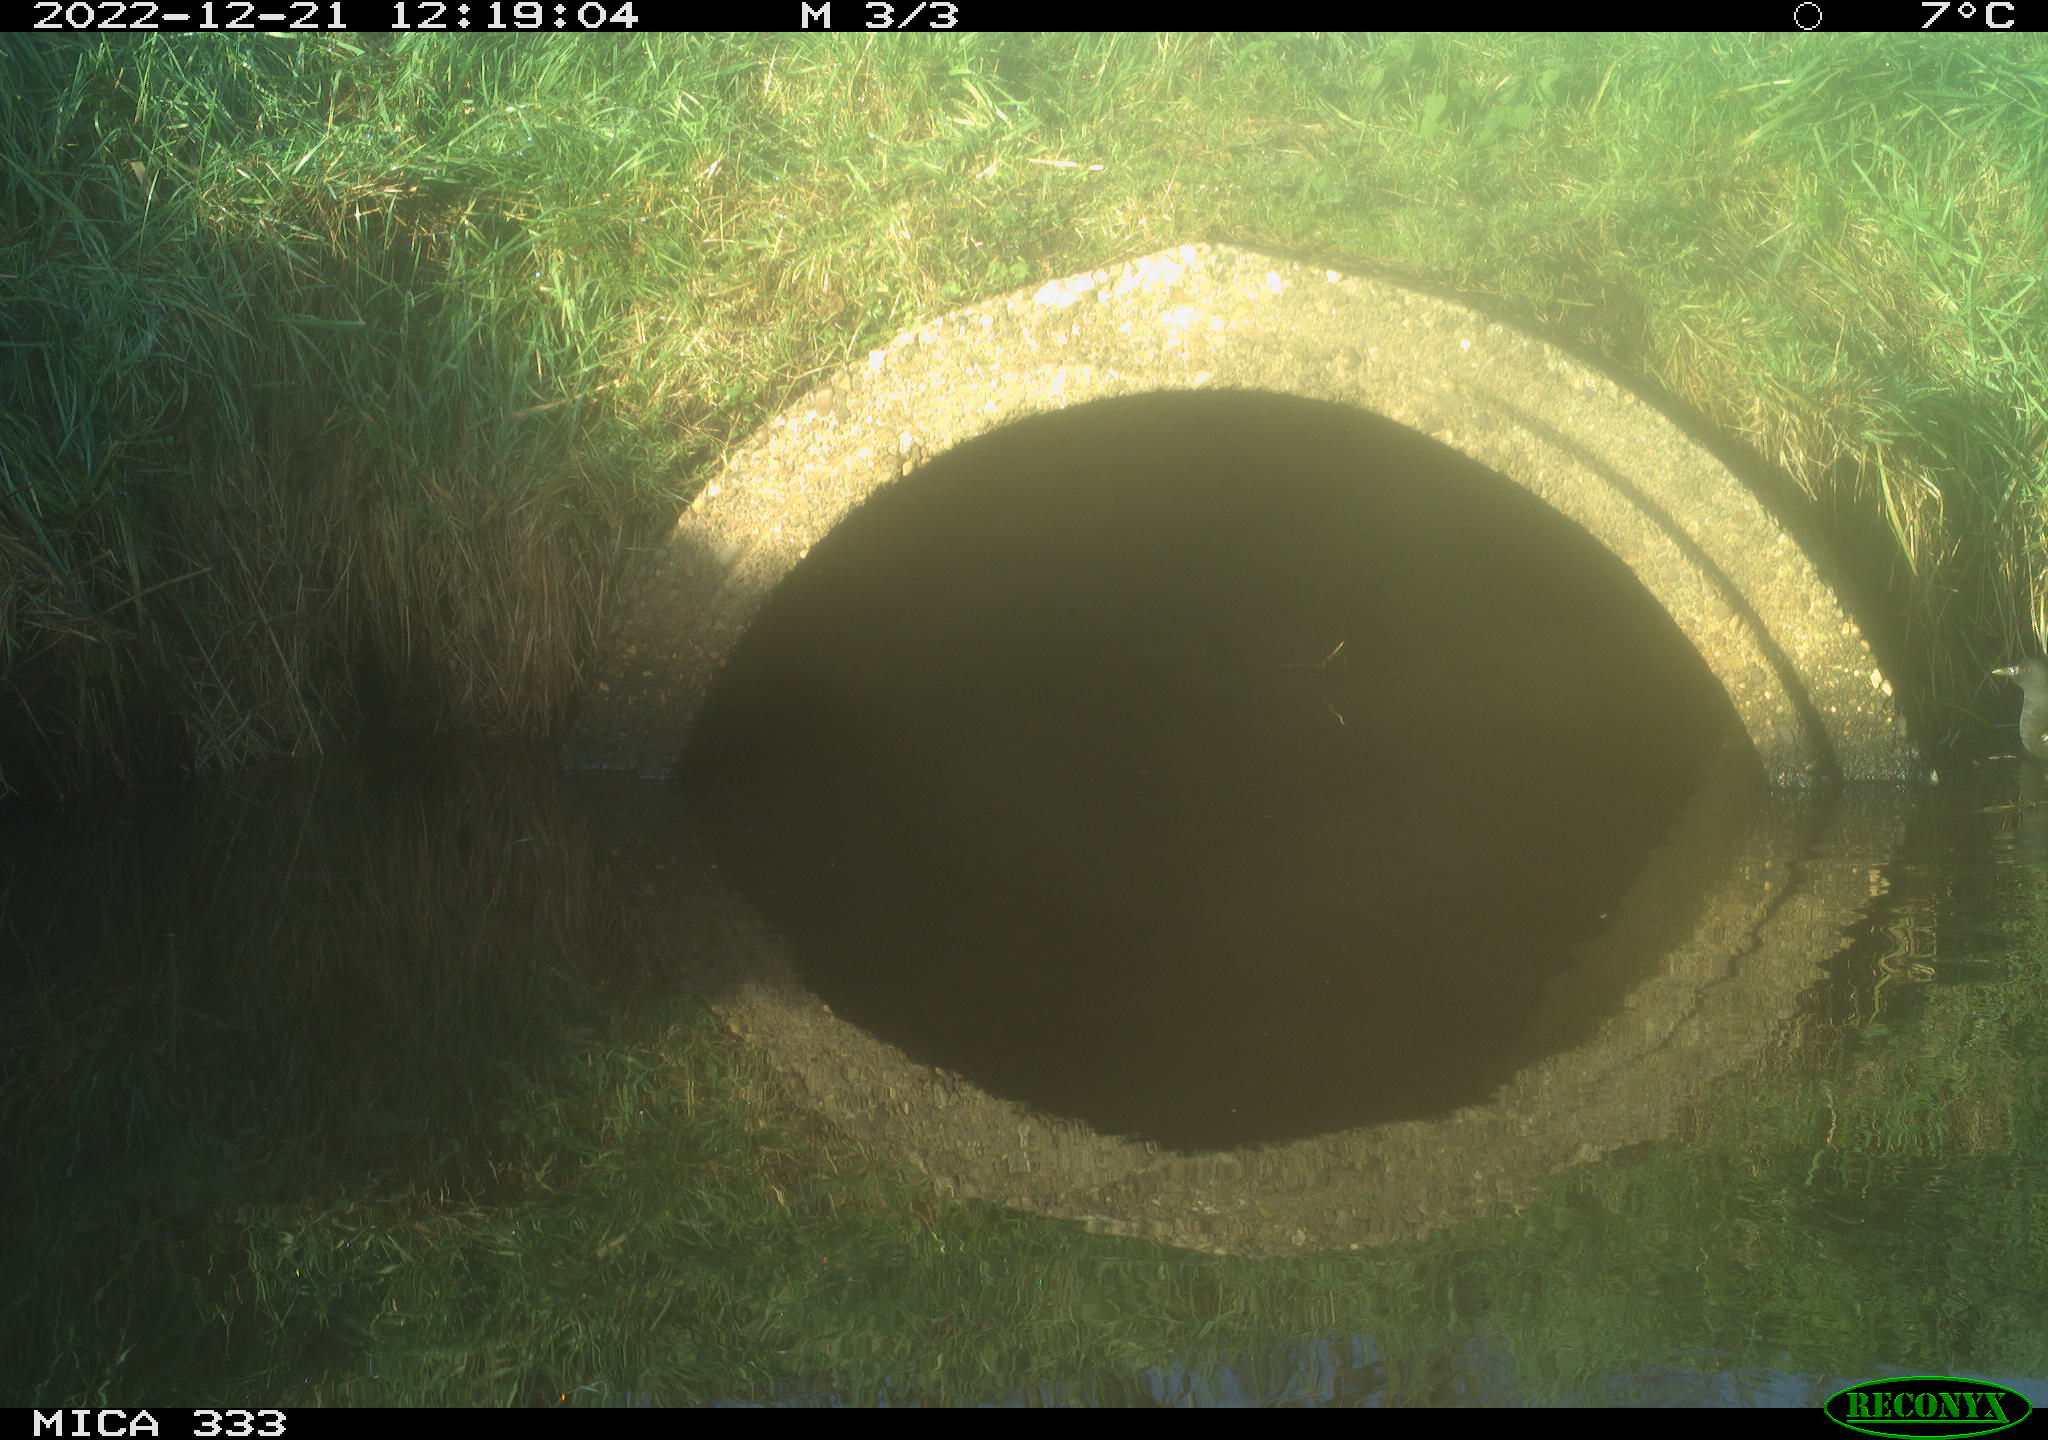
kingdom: Animalia
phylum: Chordata
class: Aves
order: Gruiformes
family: Rallidae
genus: Gallinula
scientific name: Gallinula chloropus
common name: Common moorhen
